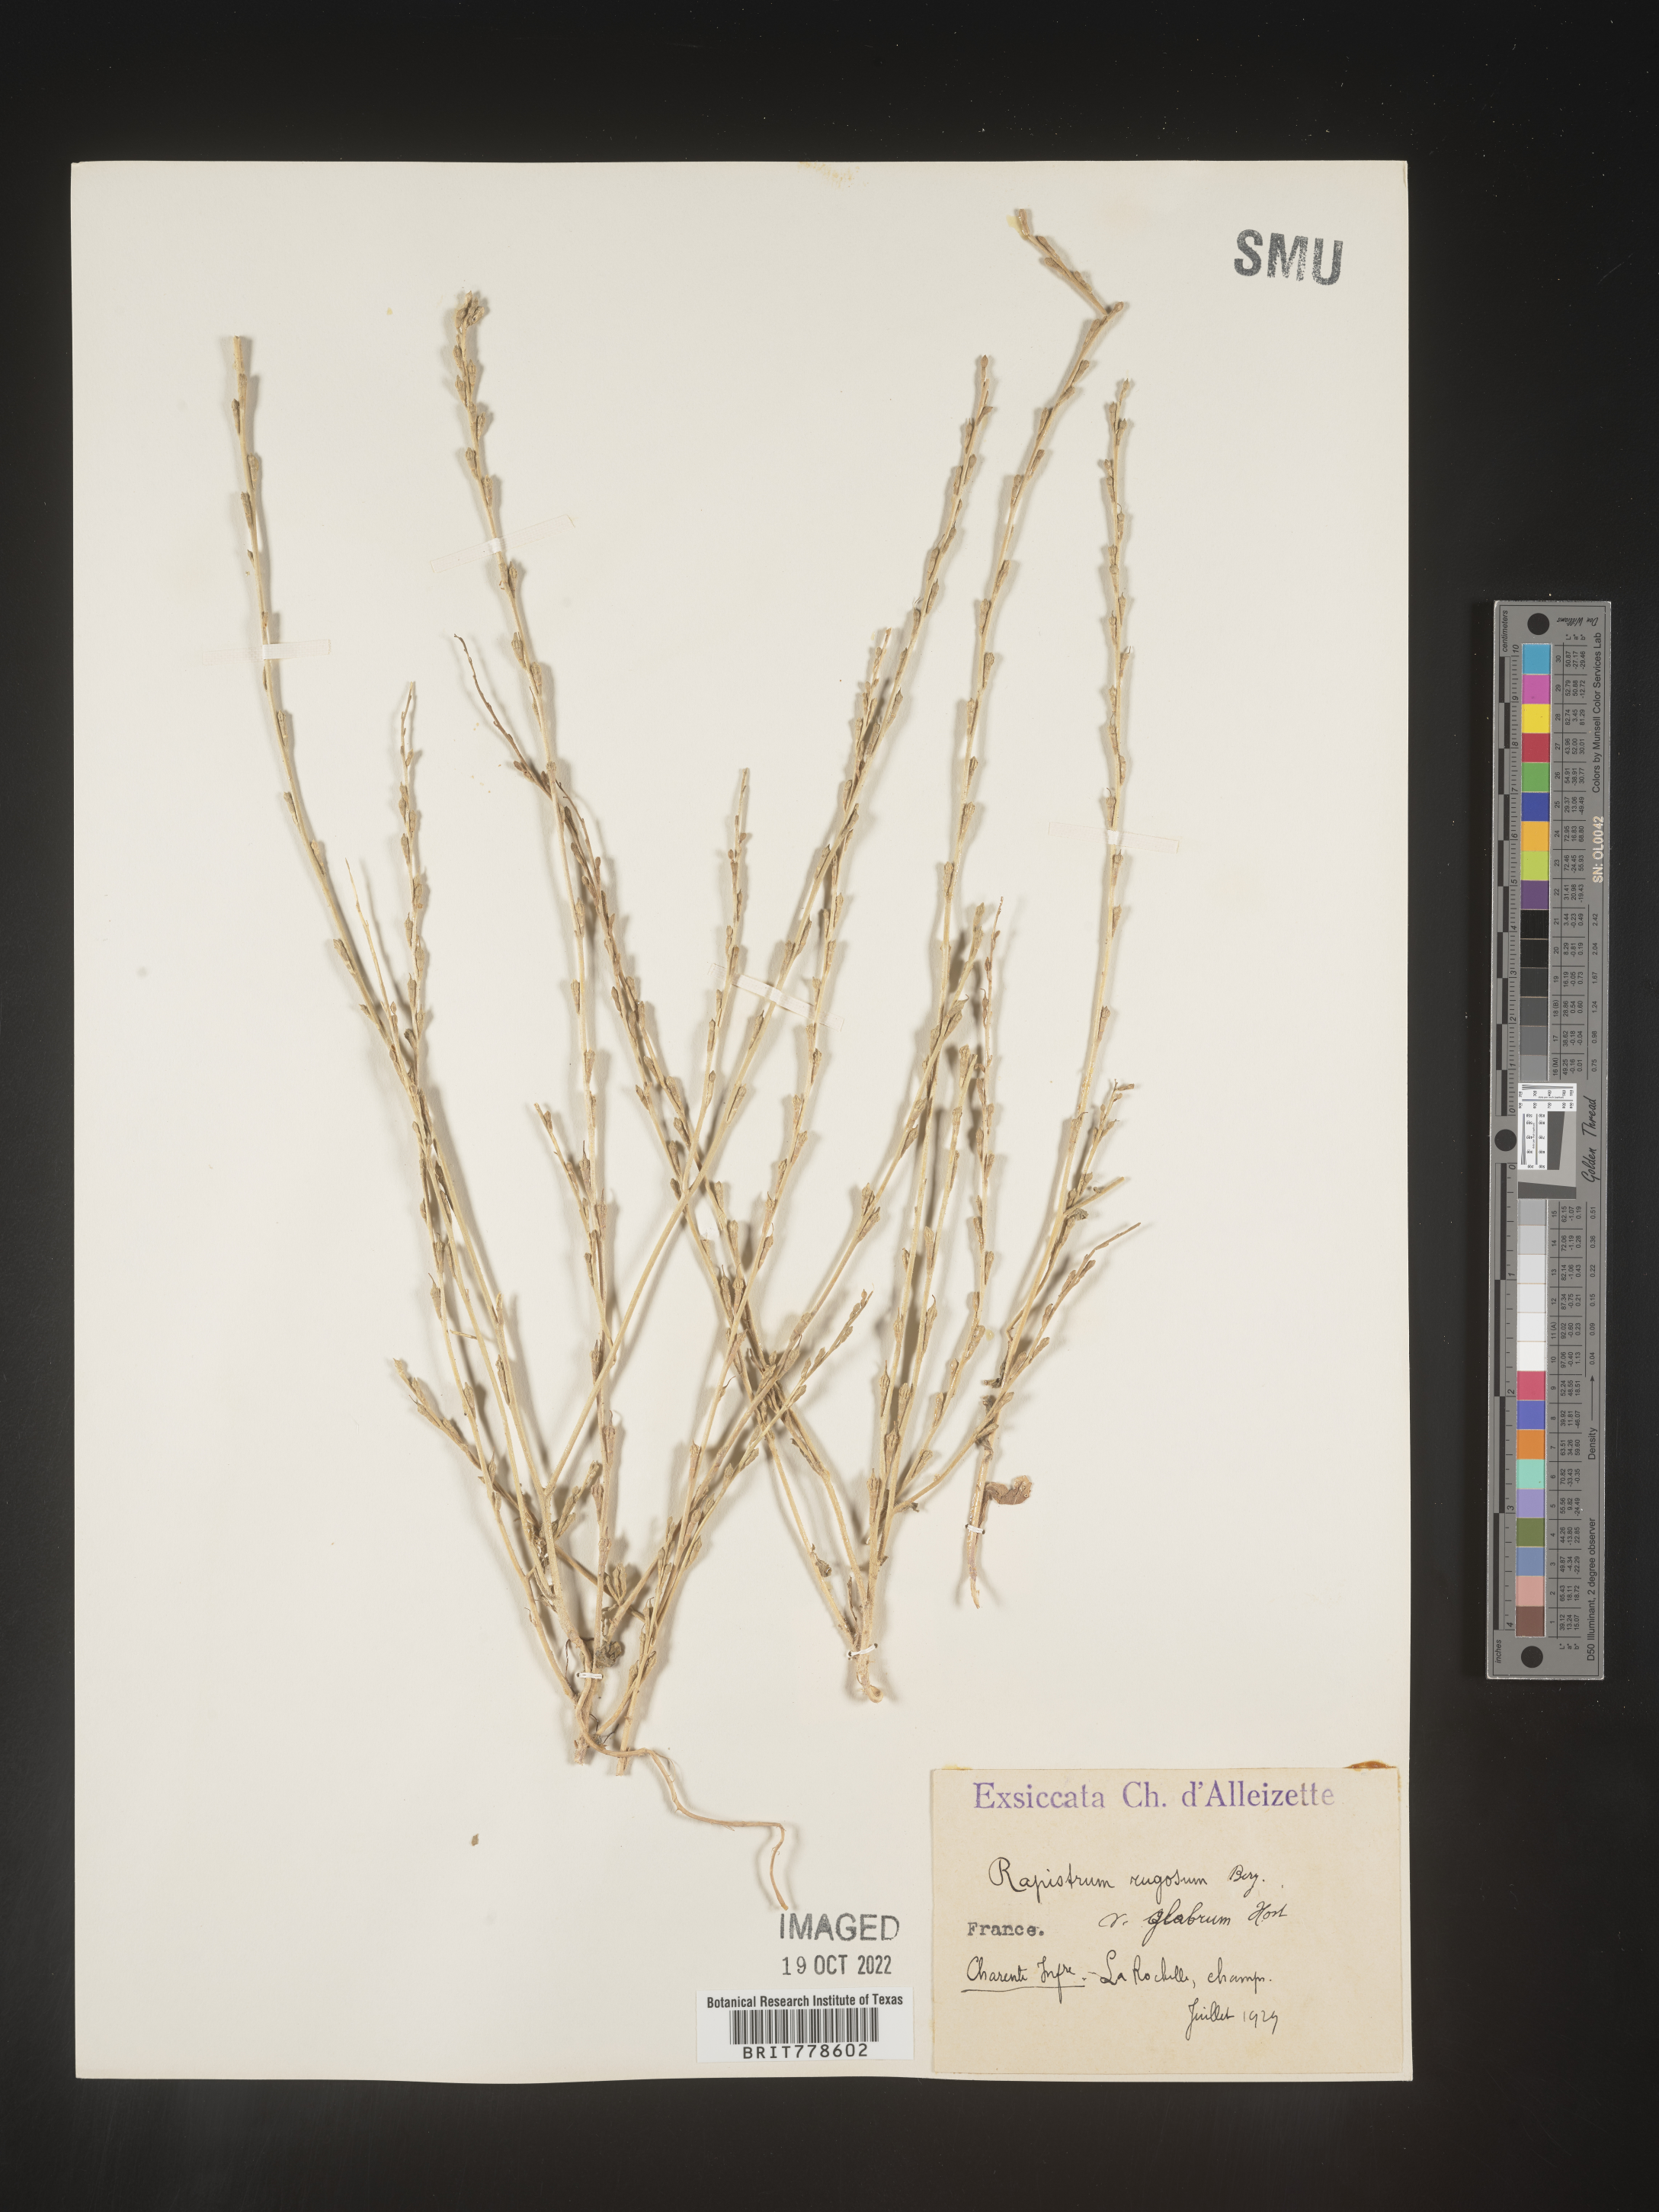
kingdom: Plantae
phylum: Tracheophyta
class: Magnoliopsida
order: Brassicales
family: Brassicaceae
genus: Rapistrum
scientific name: Rapistrum
